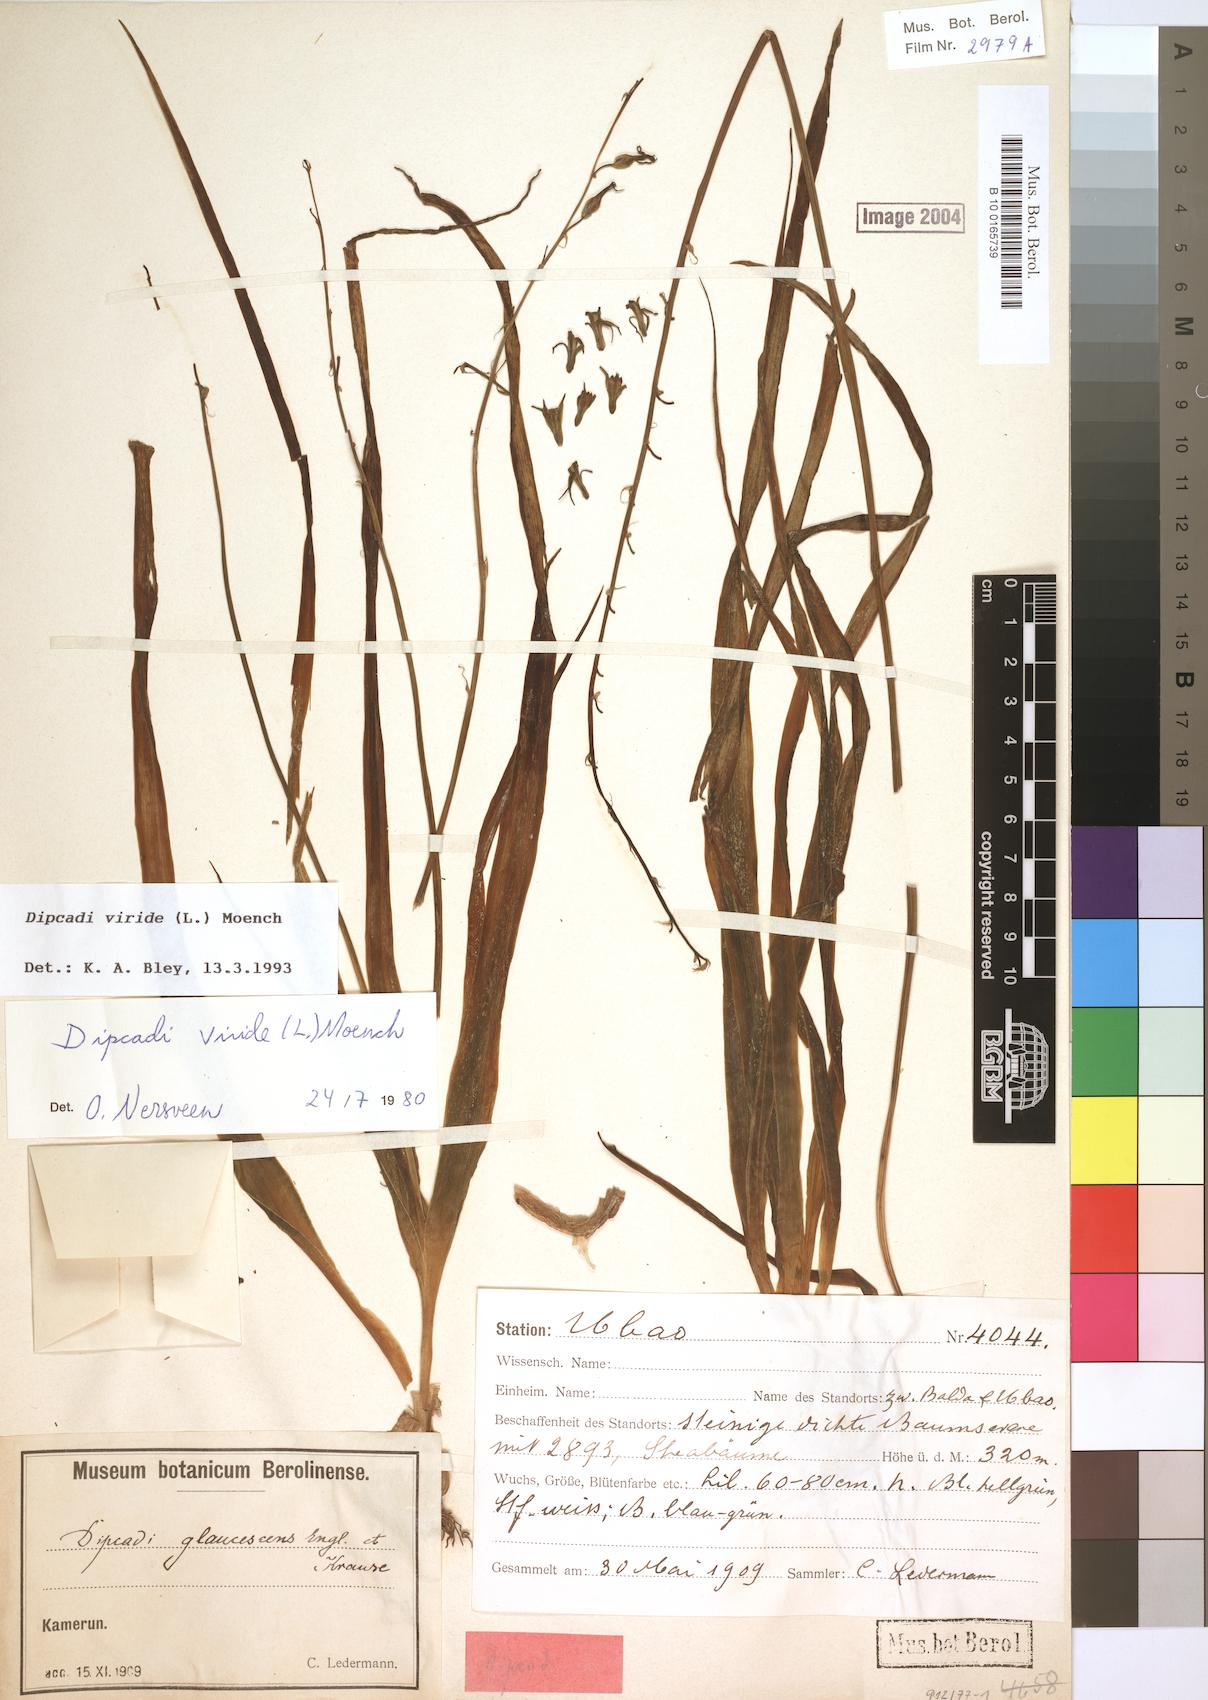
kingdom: Plantae
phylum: Tracheophyta
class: Liliopsida
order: Asparagales
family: Asparagaceae
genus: Dipcadi
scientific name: Dipcadi viride
